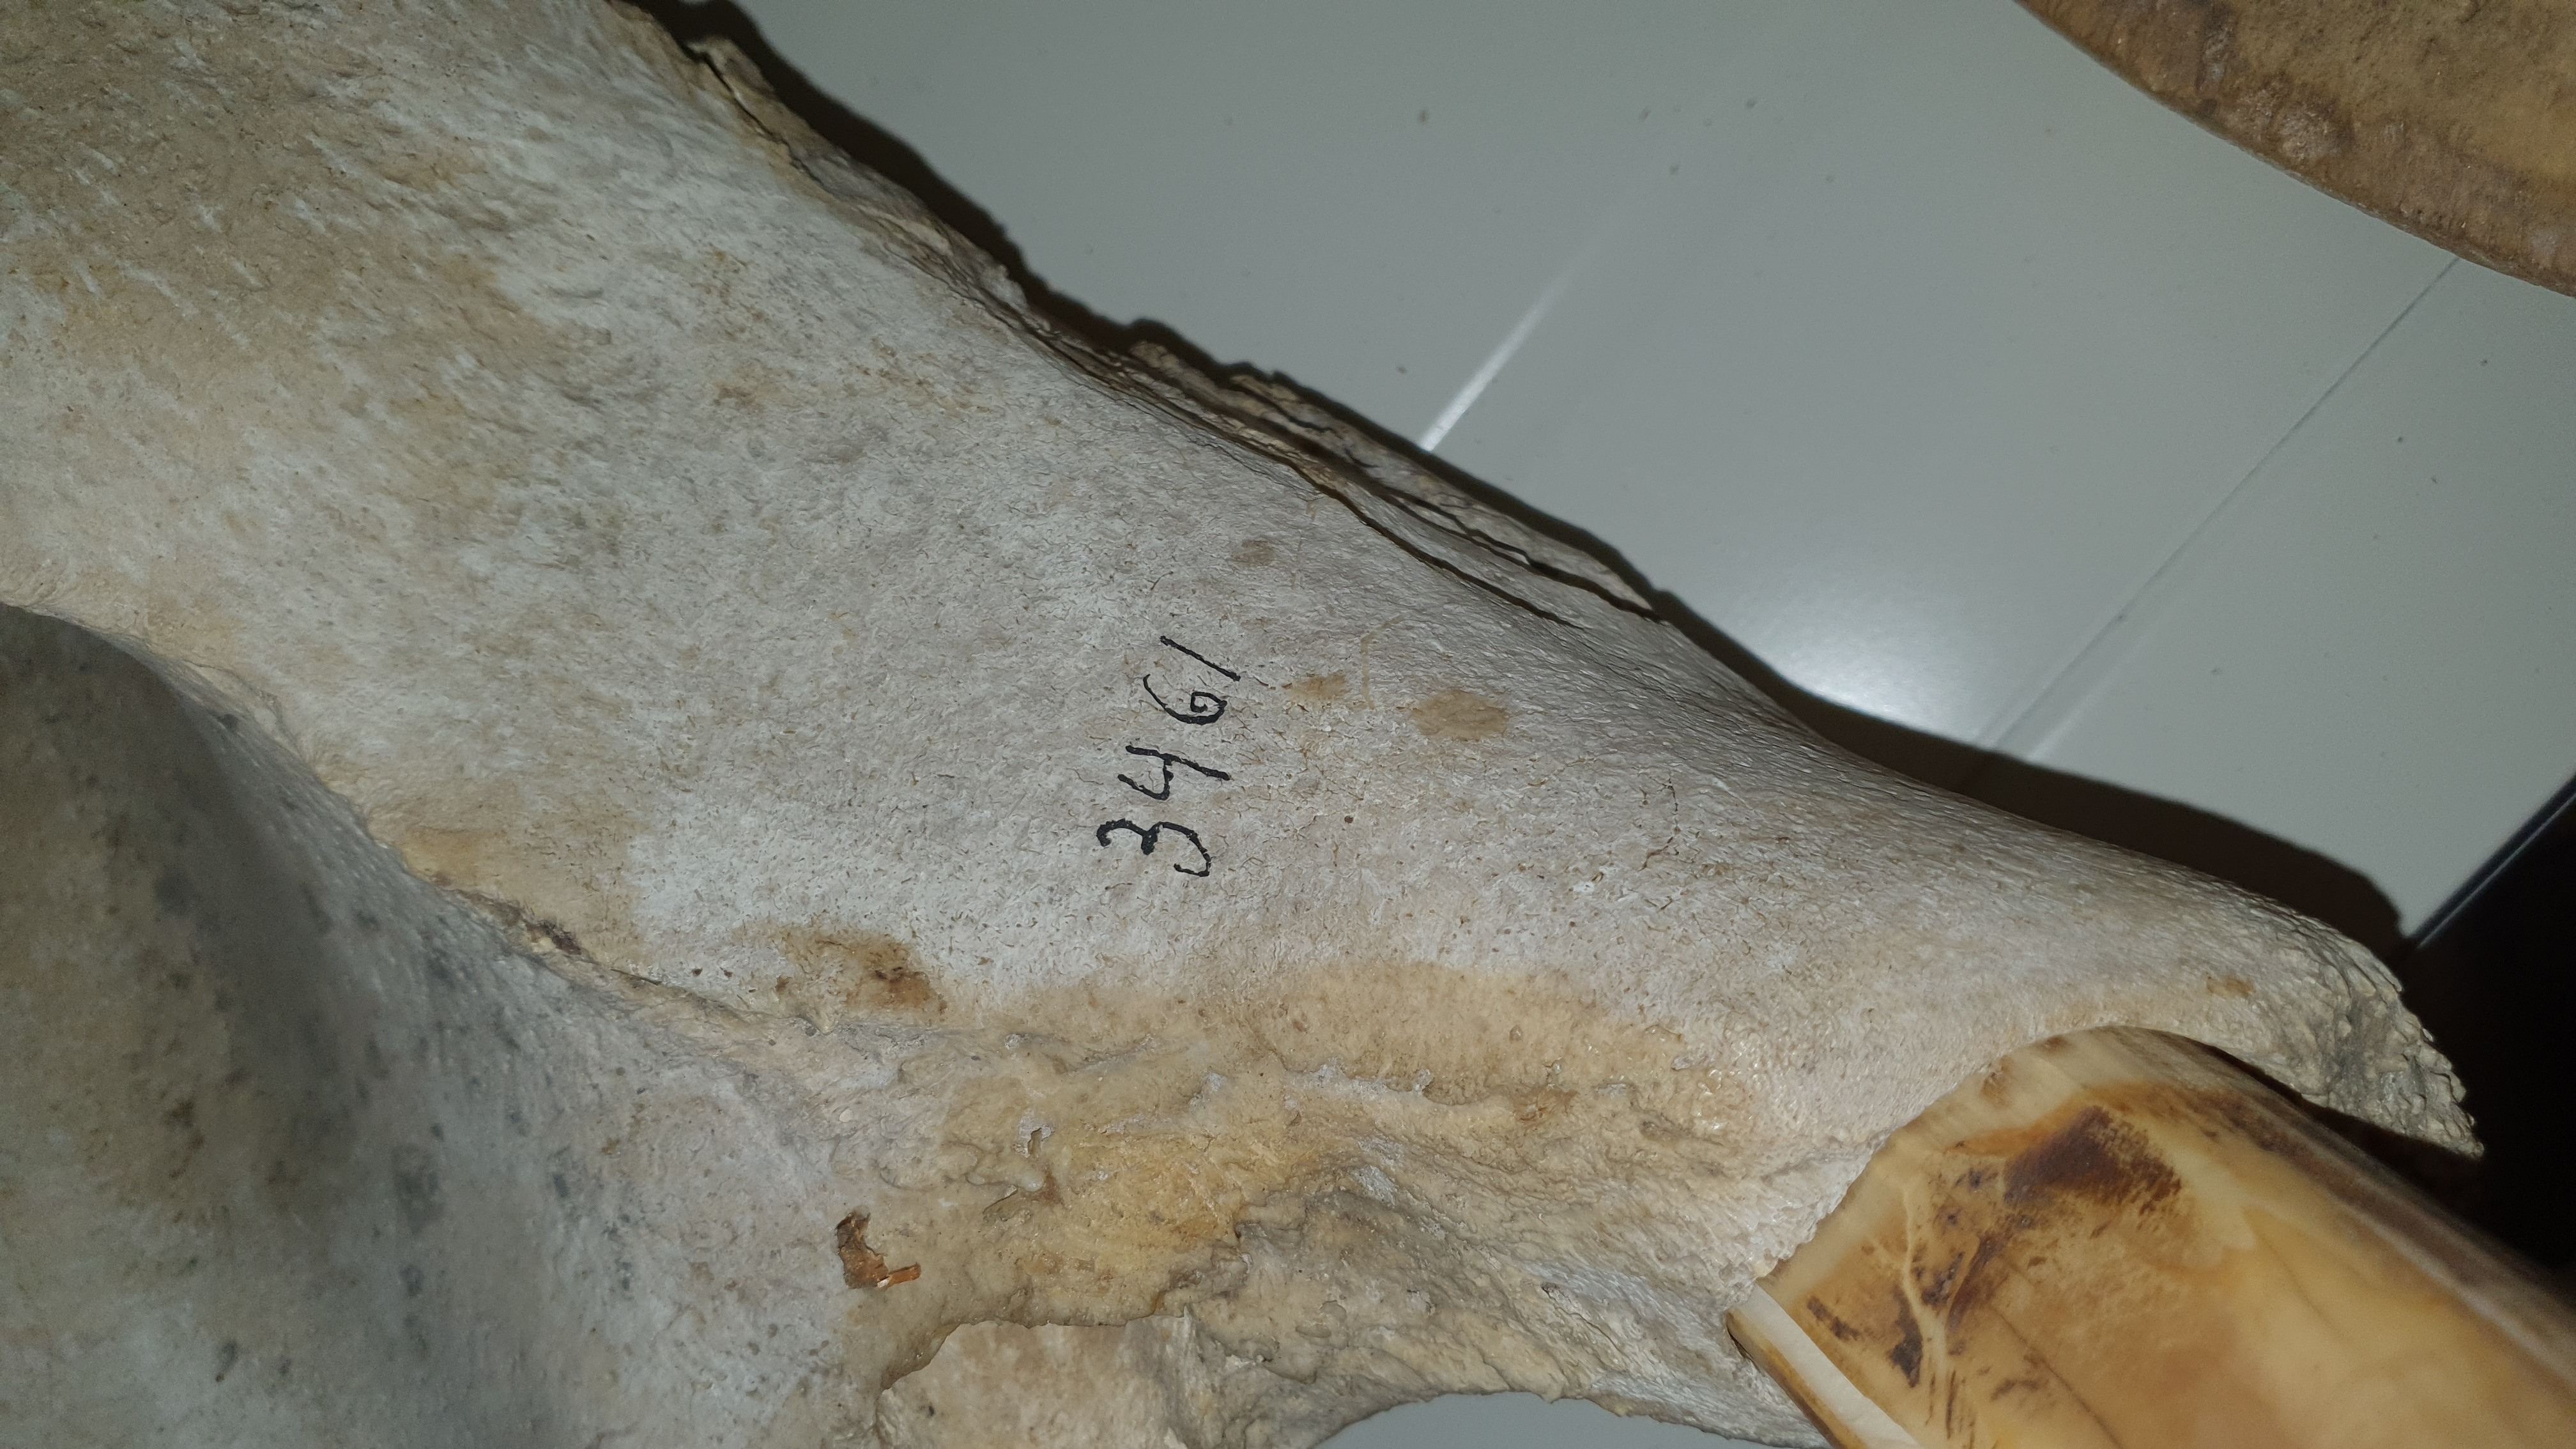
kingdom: Animalia
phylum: Chordata
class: Mammalia
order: Artiodactyla
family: Hippopotamidae
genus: Hippopotamus
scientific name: Hippopotamus amphibius
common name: Common hippopotamus
